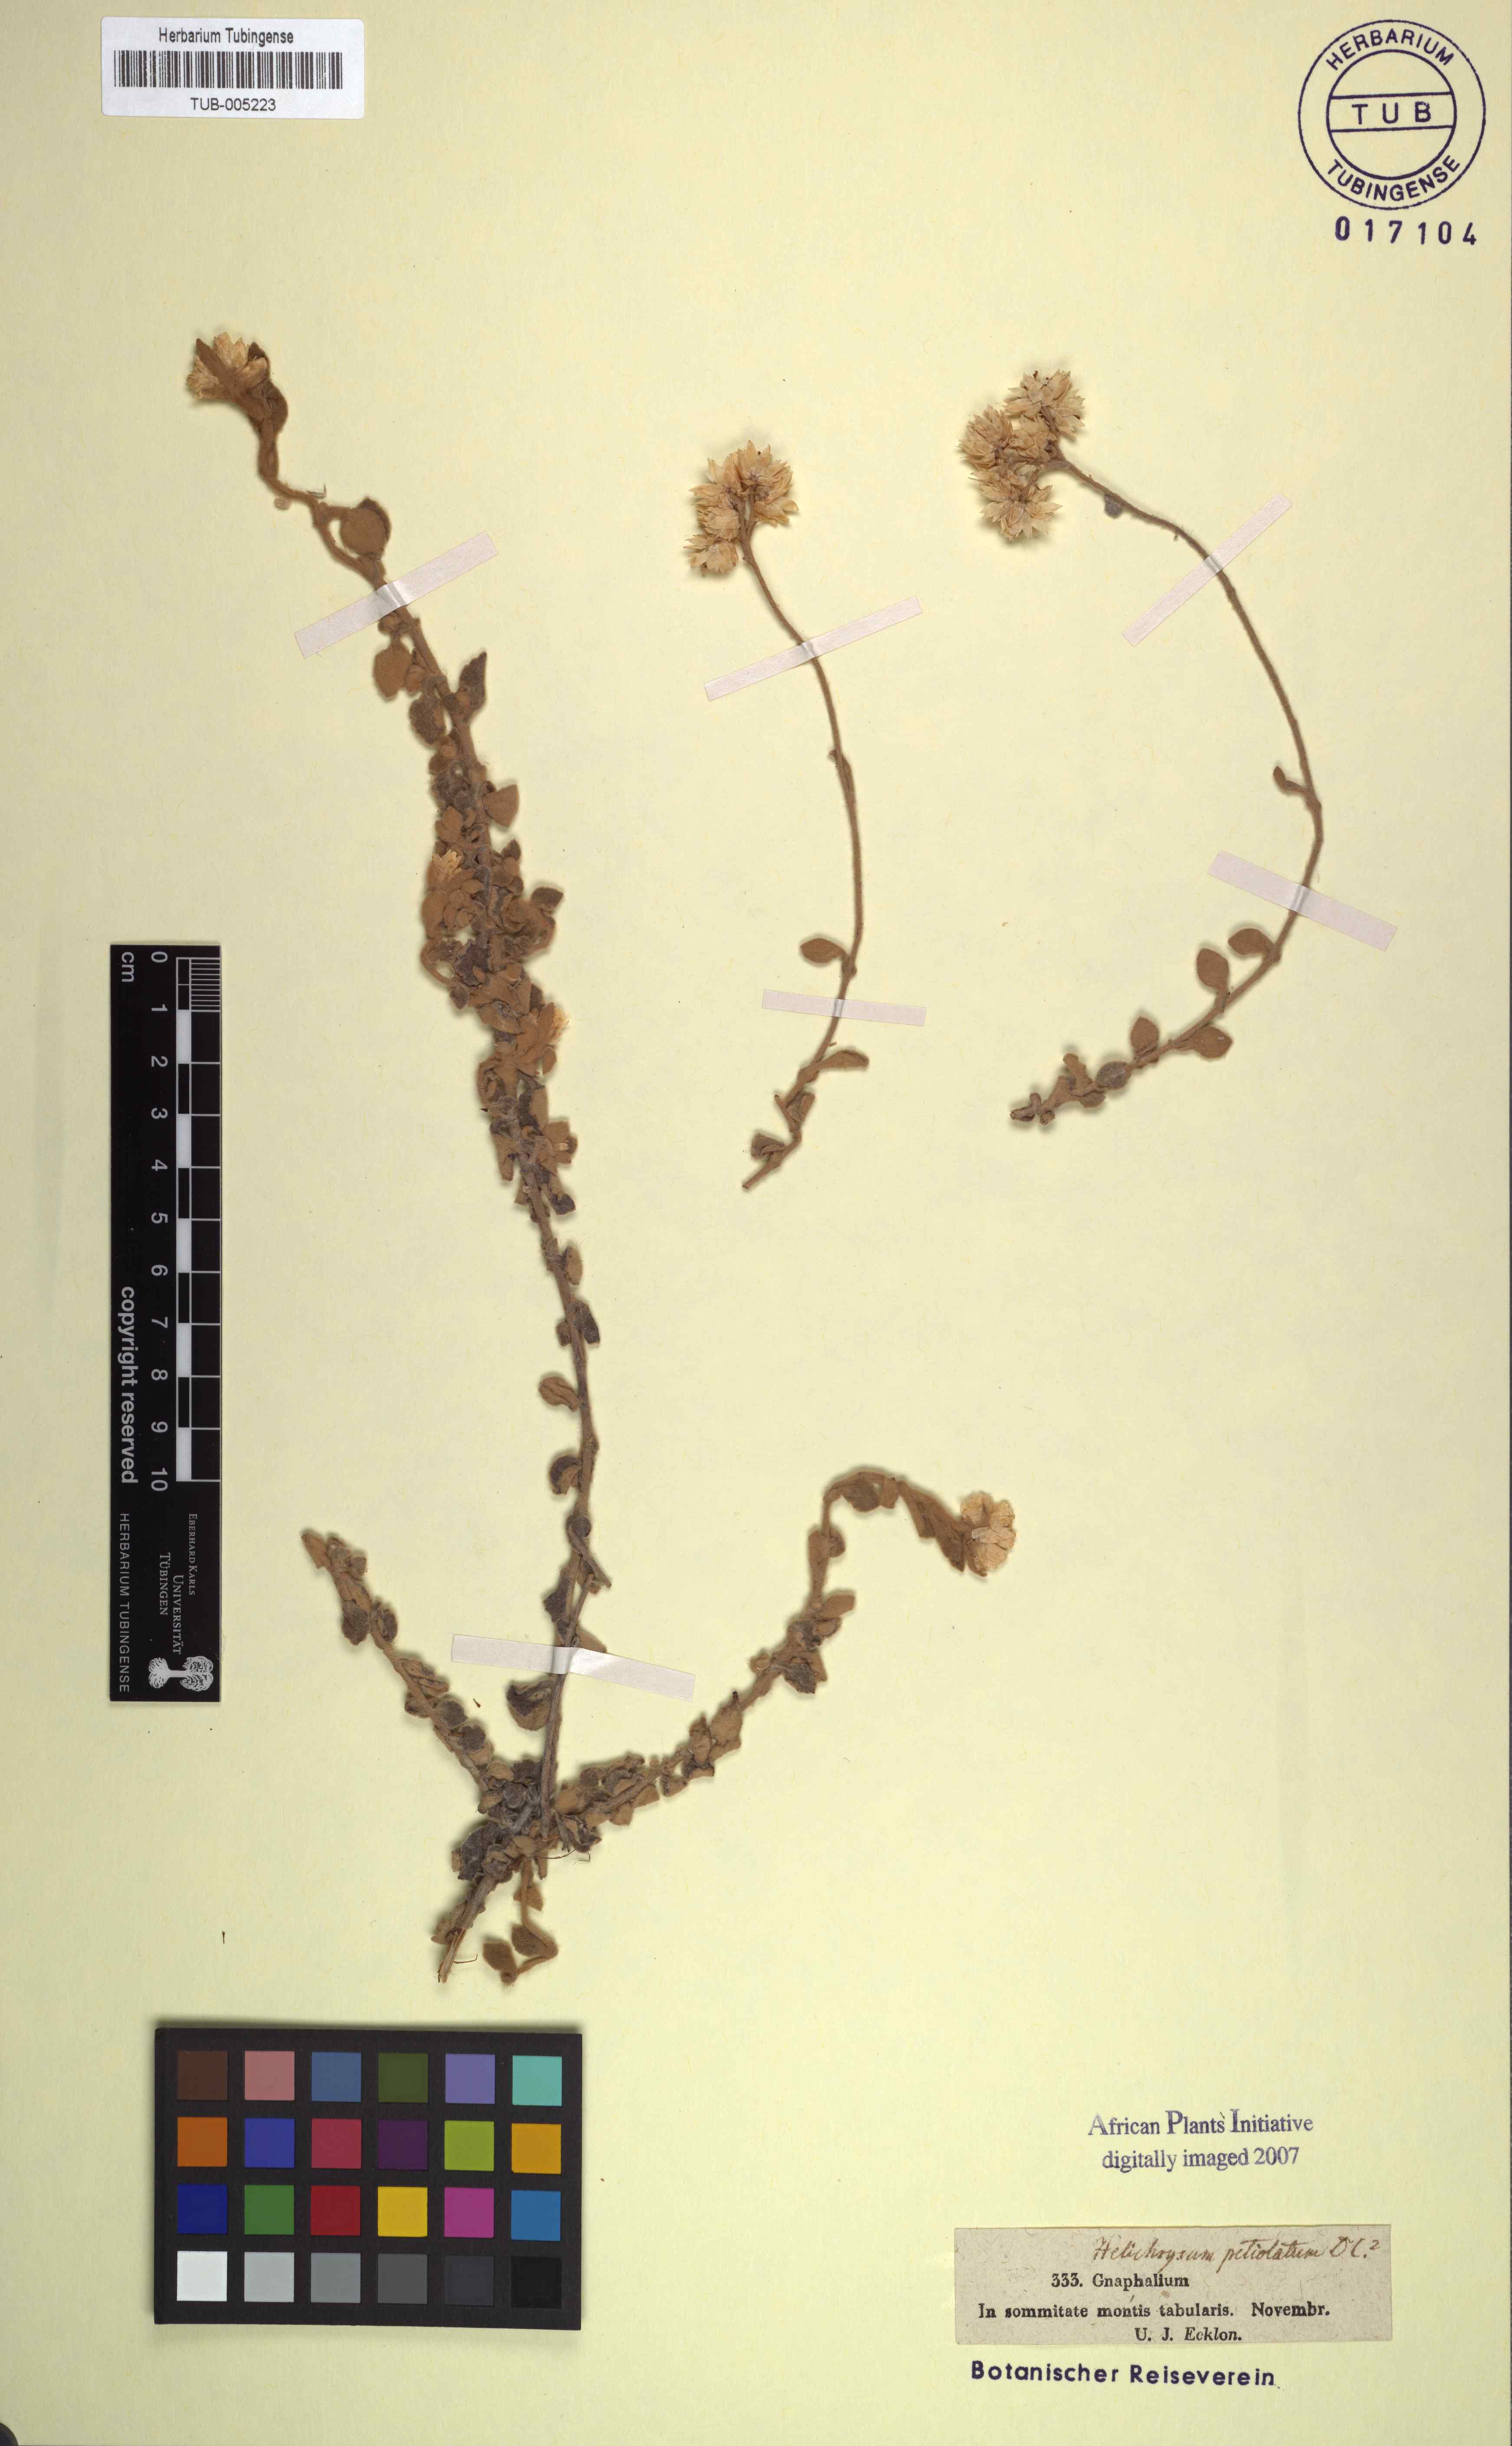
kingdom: Plantae
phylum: Tracheophyta
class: Magnoliopsida
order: Asterales
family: Asteraceae
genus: Helichrysum
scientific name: Helichrysum petiolare
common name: Licorice-plant
